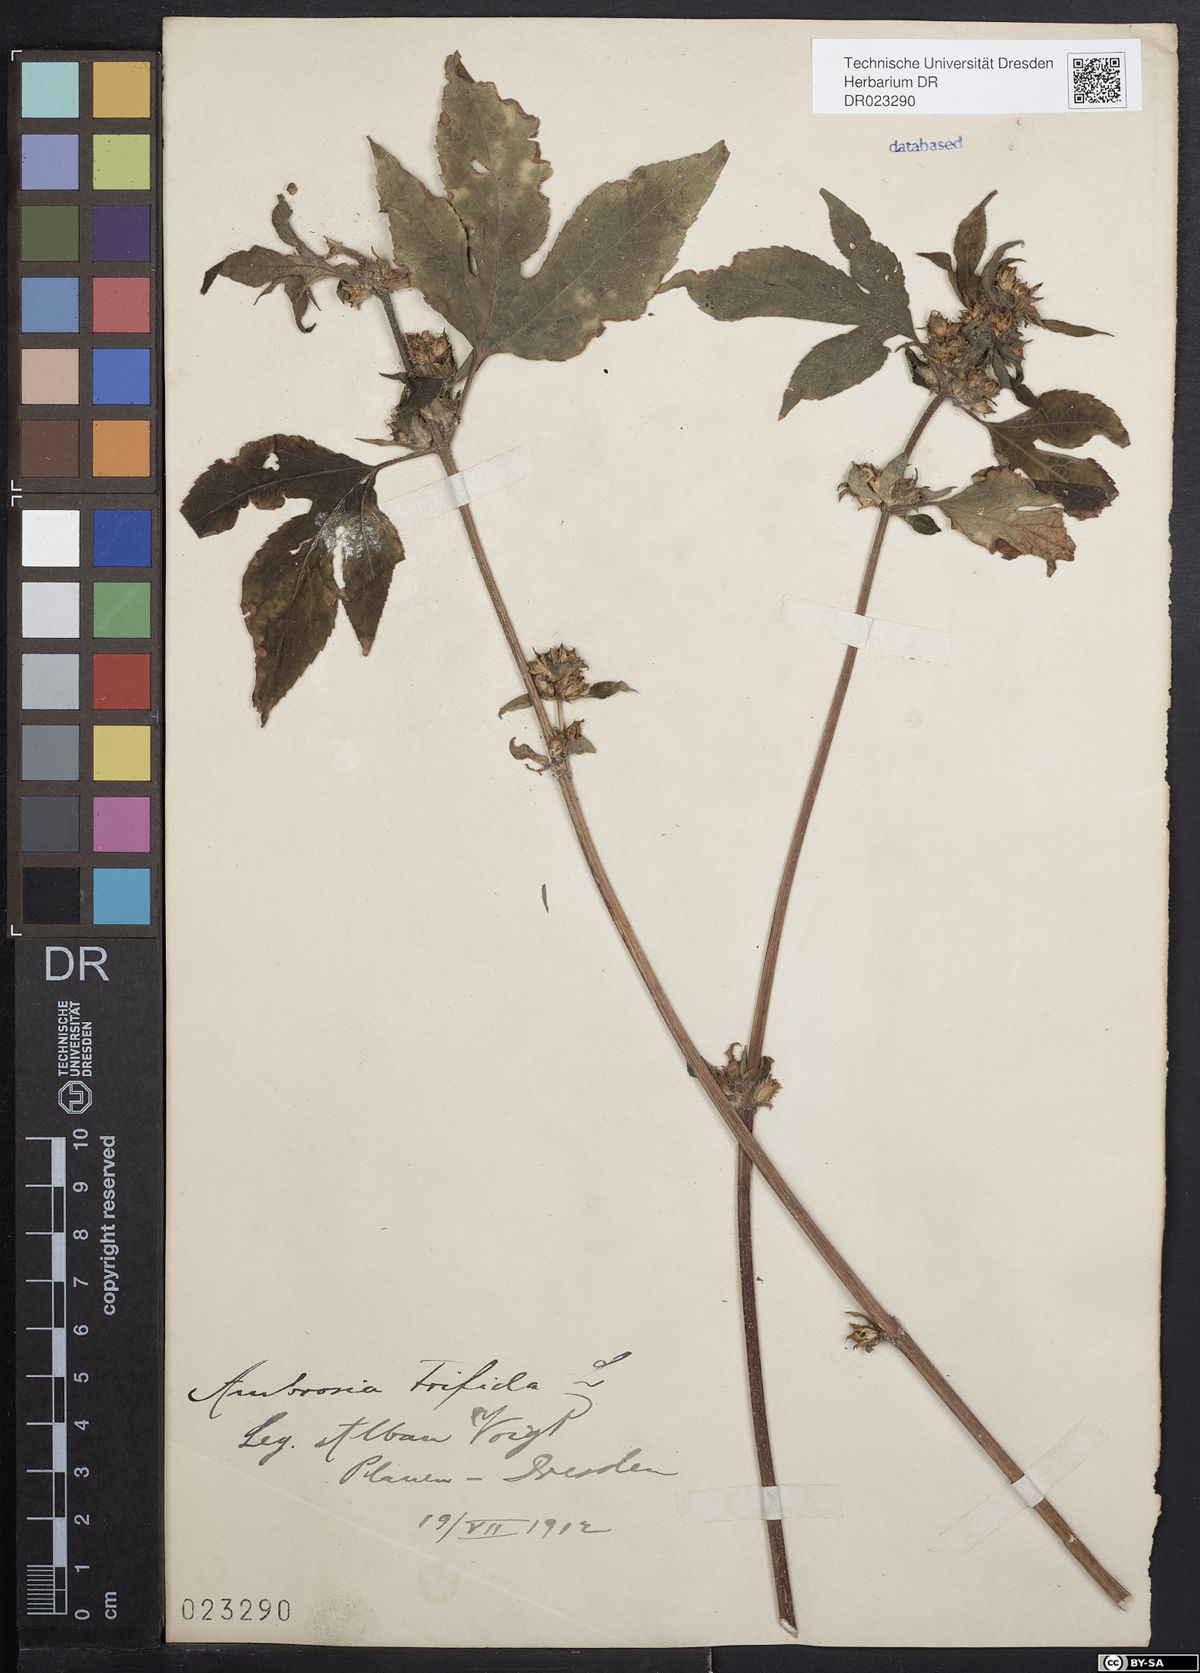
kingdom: Plantae
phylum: Tracheophyta
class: Magnoliopsida
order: Asterales
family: Asteraceae
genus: Ambrosia
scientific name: Ambrosia trifida
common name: Giant ragweed
